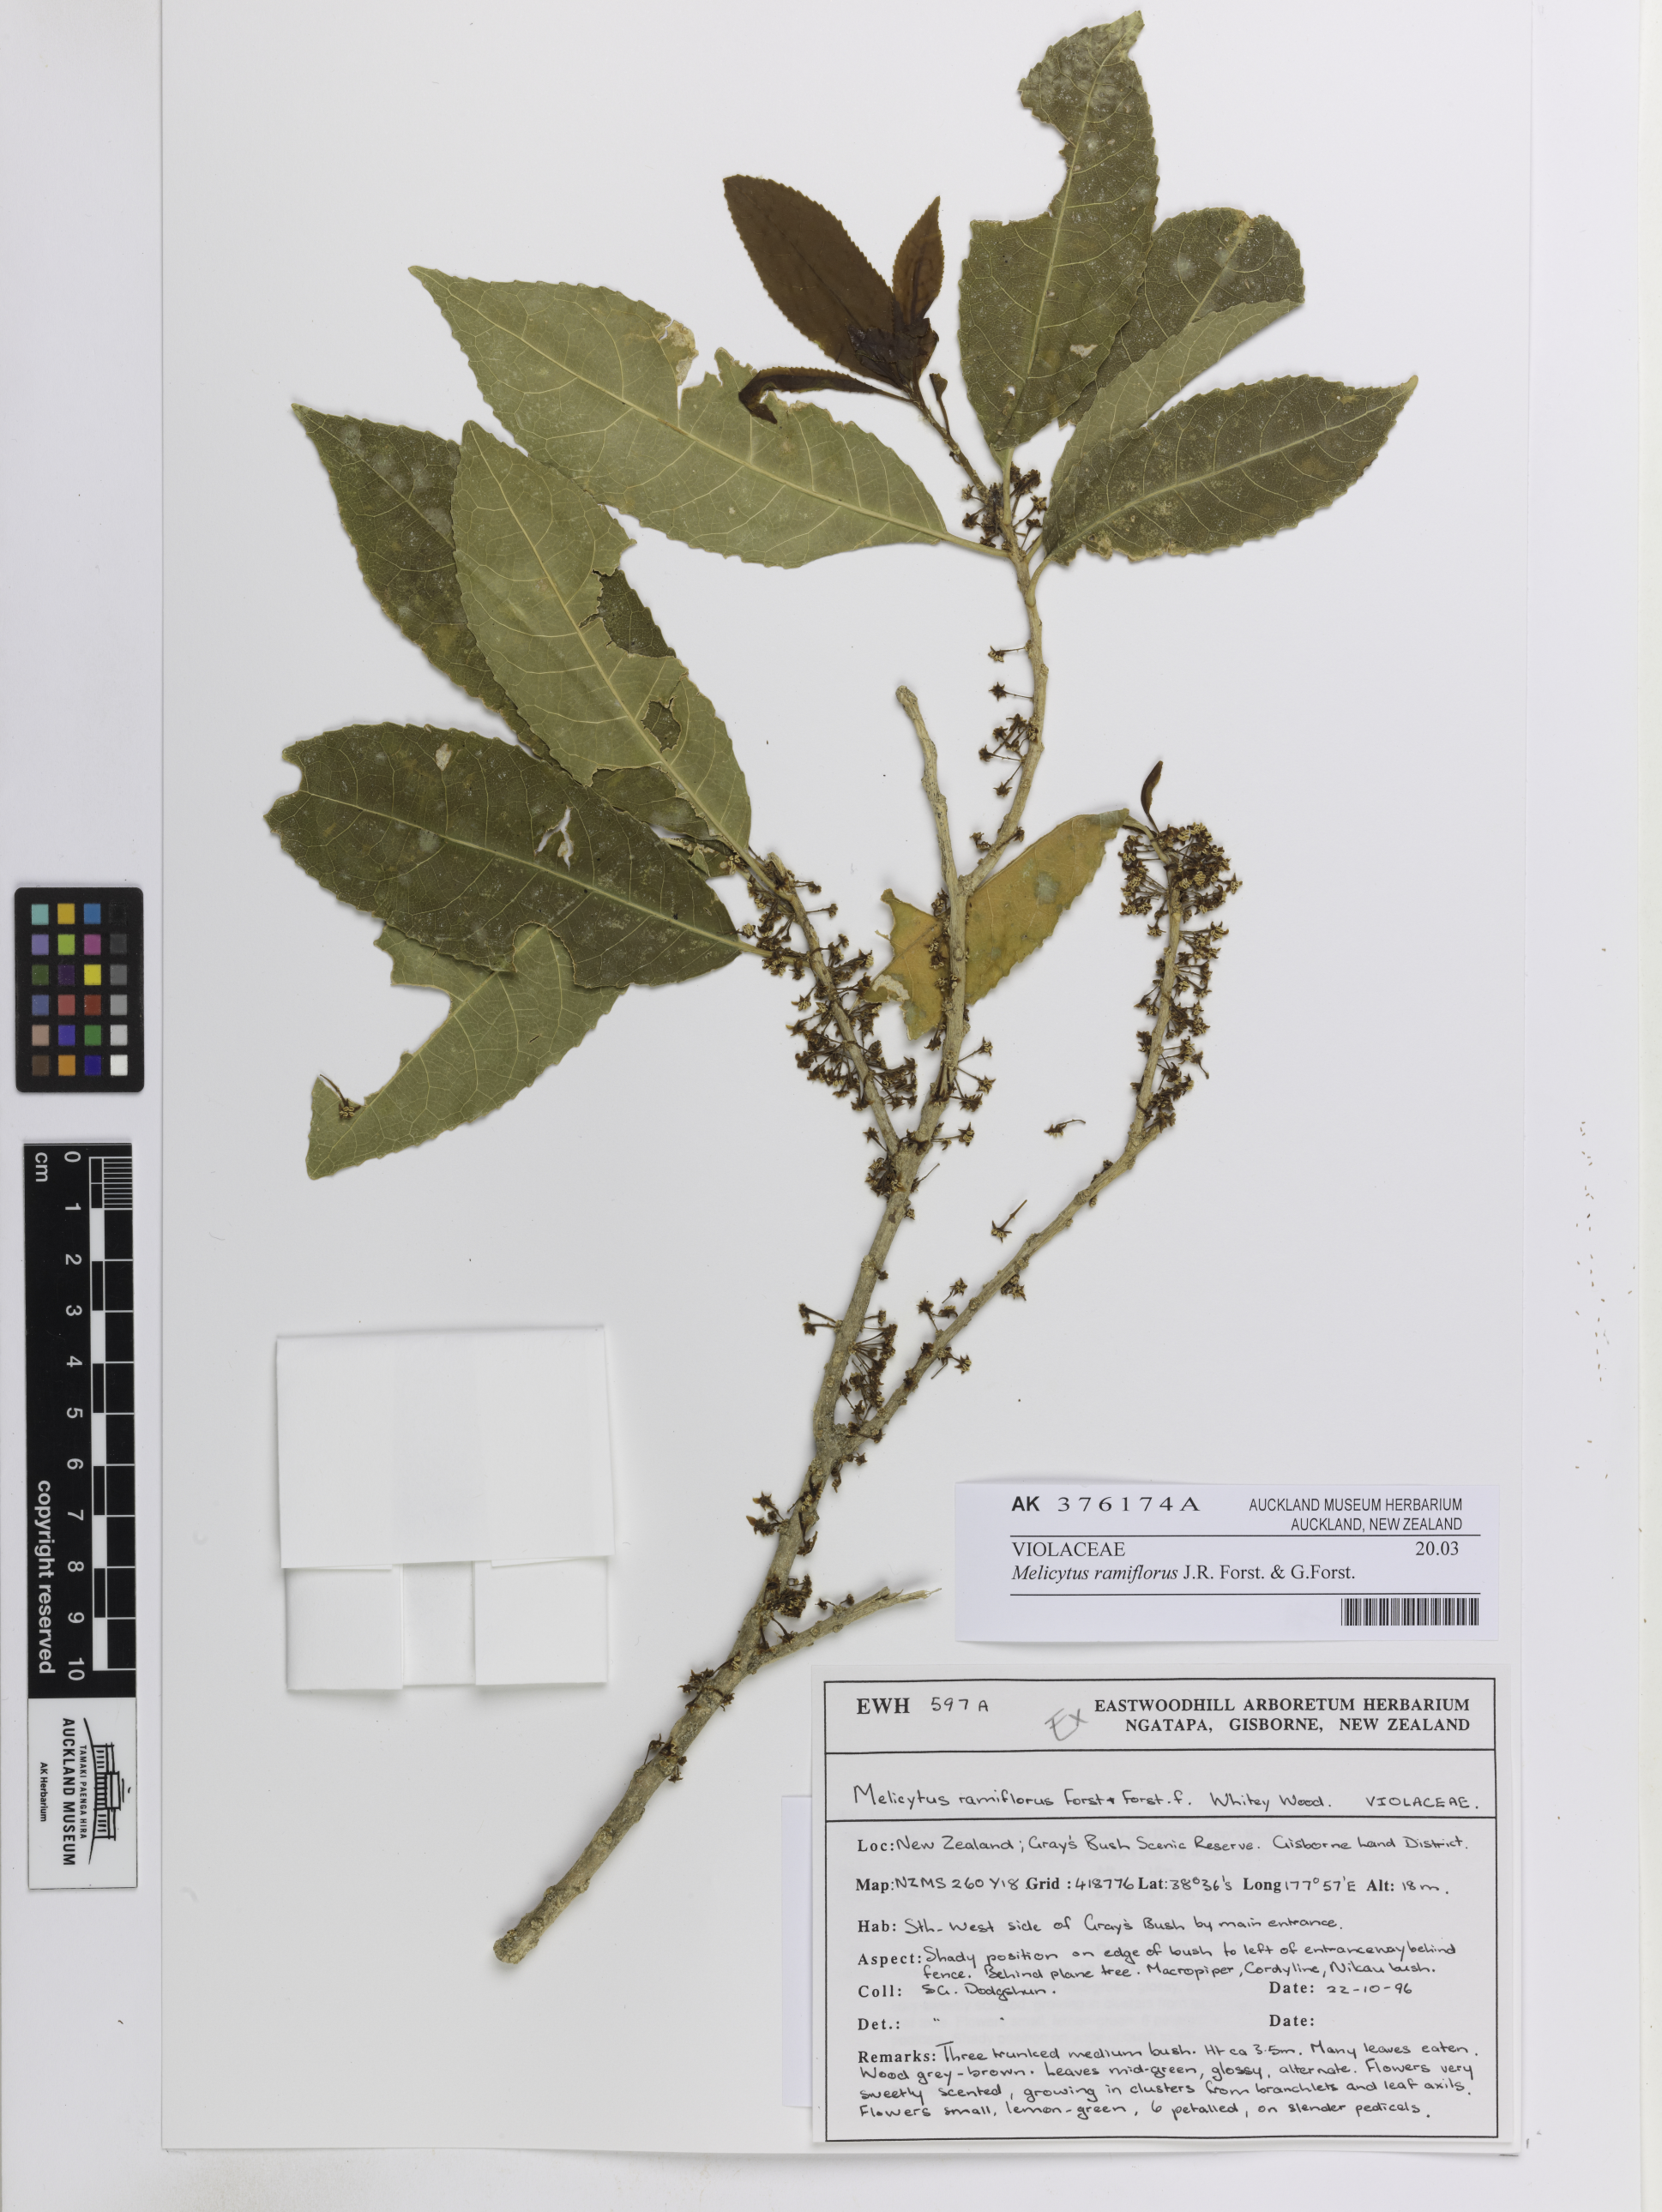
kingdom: Plantae
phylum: Tracheophyta
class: Magnoliopsida
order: Malpighiales
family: Violaceae
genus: Melicytus
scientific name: Melicytus ramiflorus
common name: Mahoe
